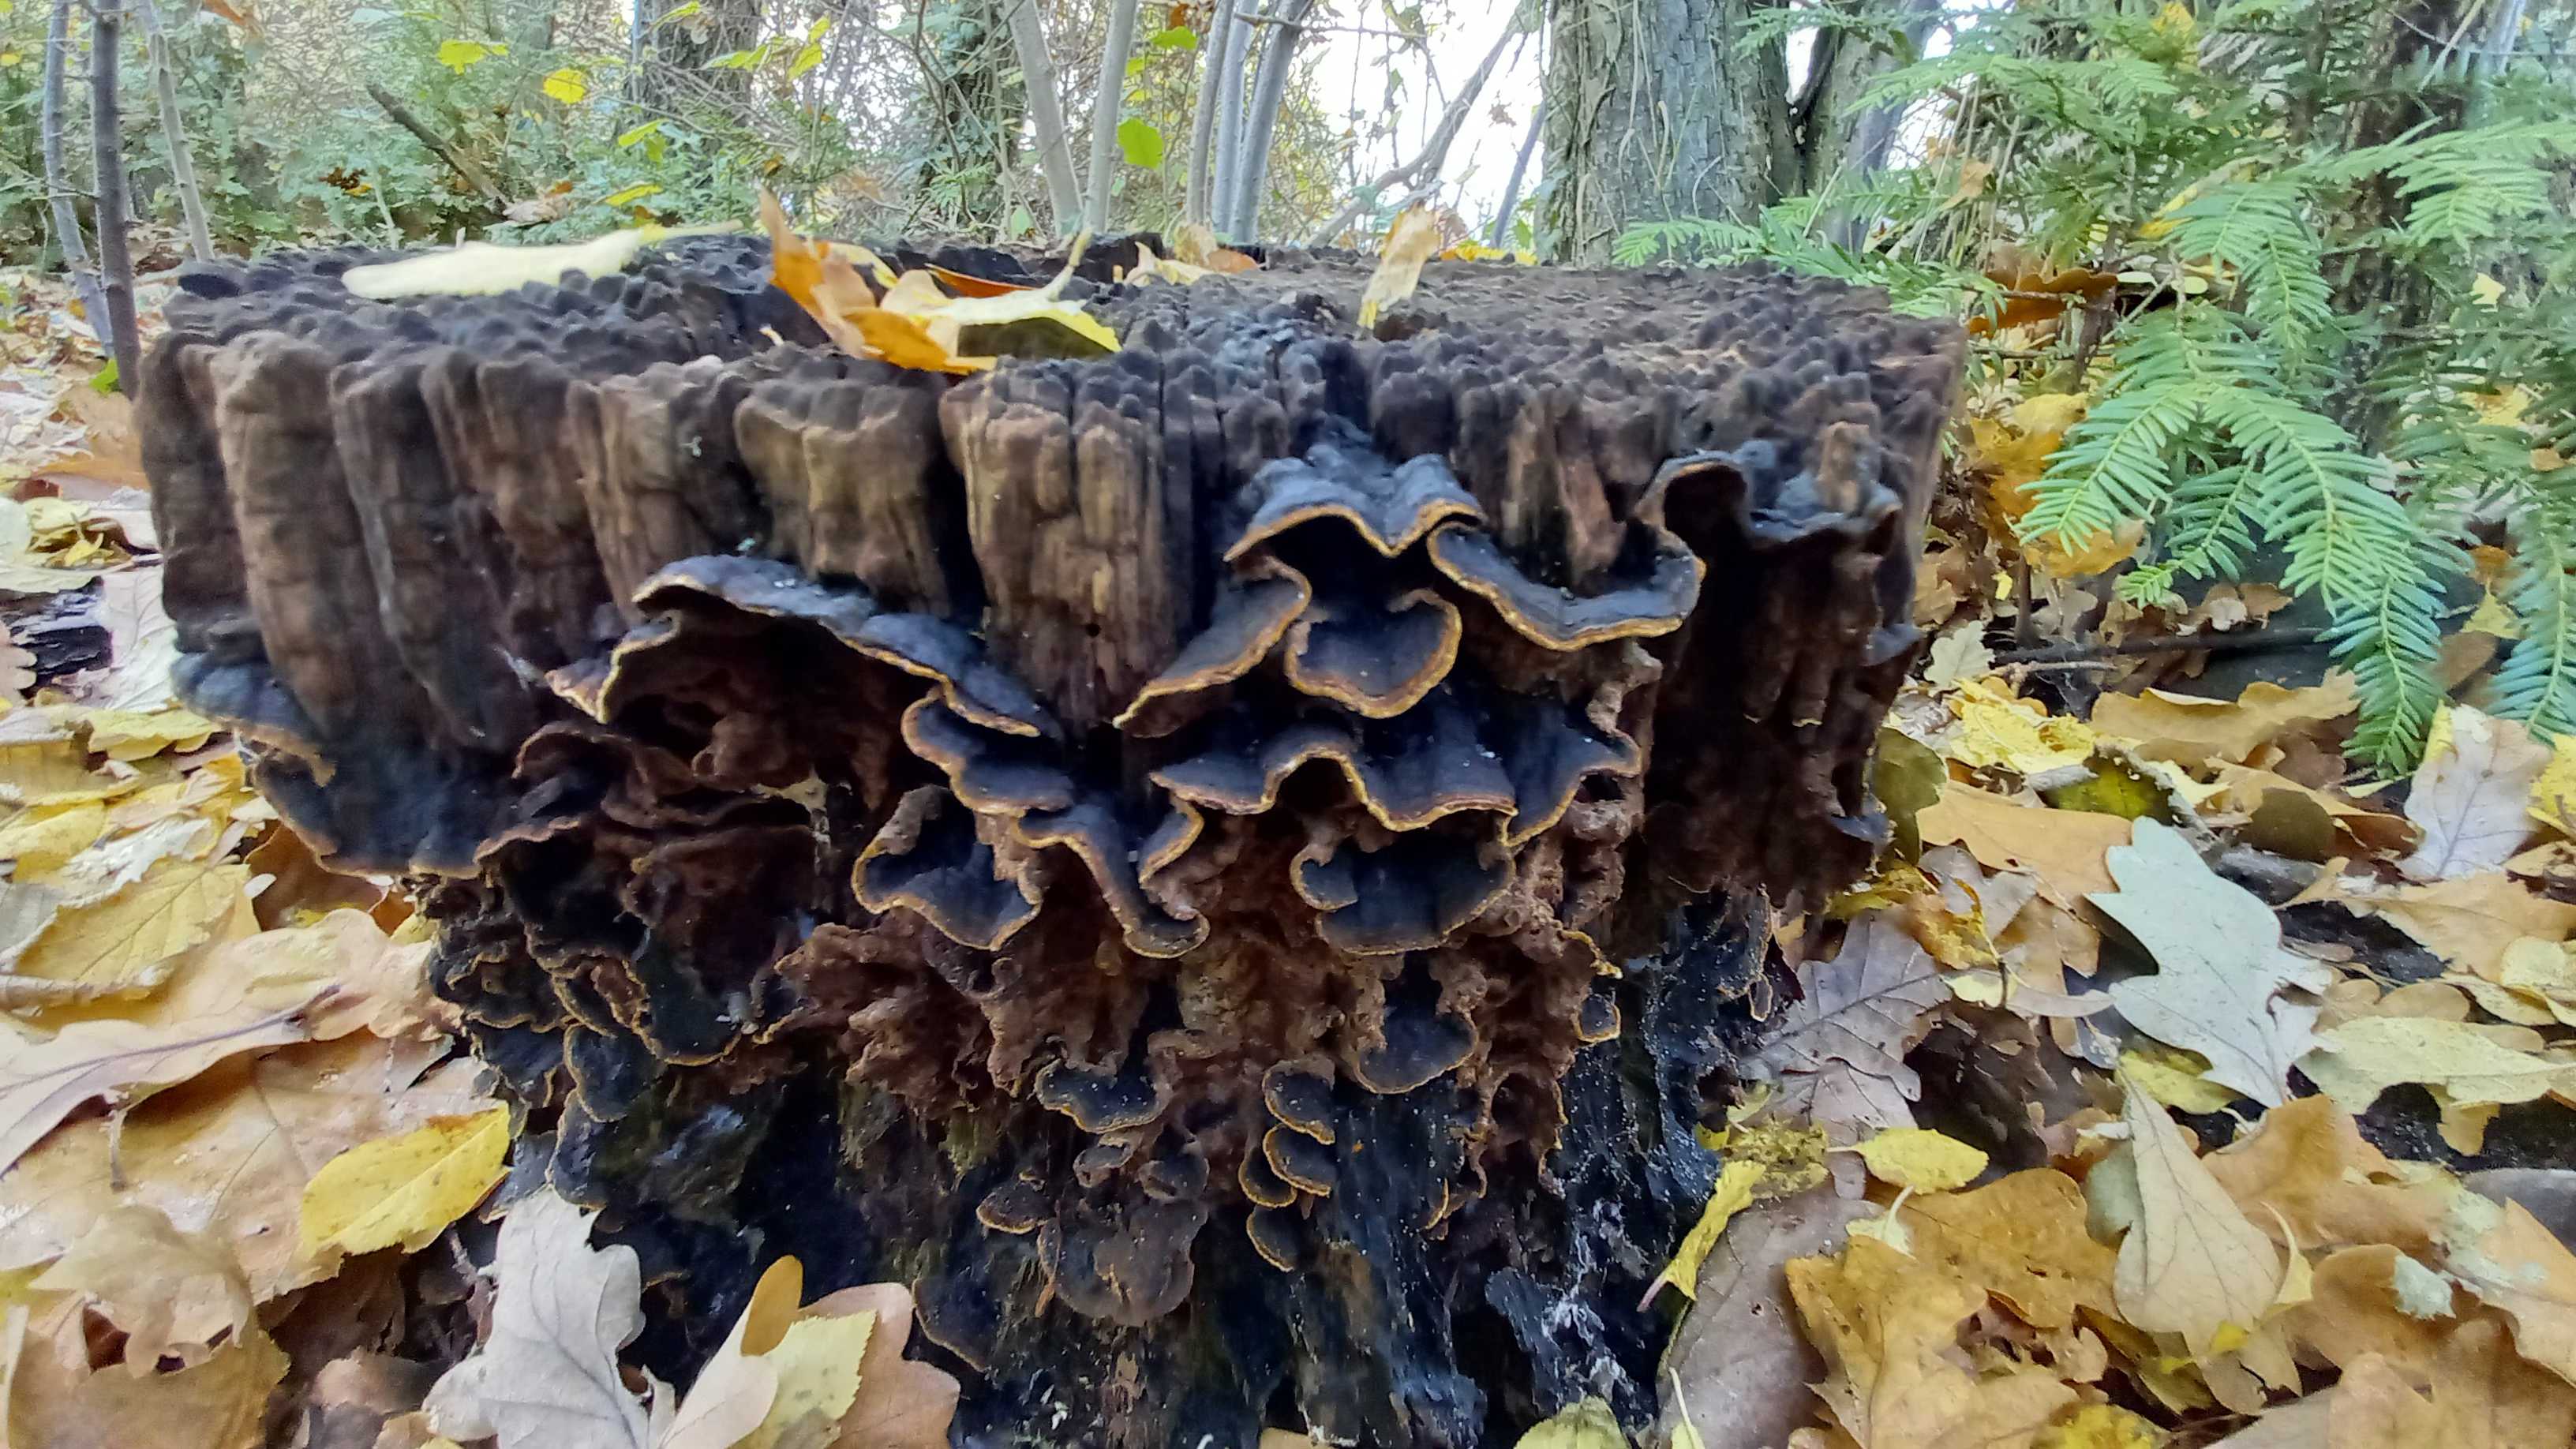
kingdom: Fungi
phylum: Basidiomycota
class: Agaricomycetes
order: Hymenochaetales
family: Hymenochaetaceae
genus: Hymenochaete
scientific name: Hymenochaete rubiginosa
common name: stiv ruslædersvamp
